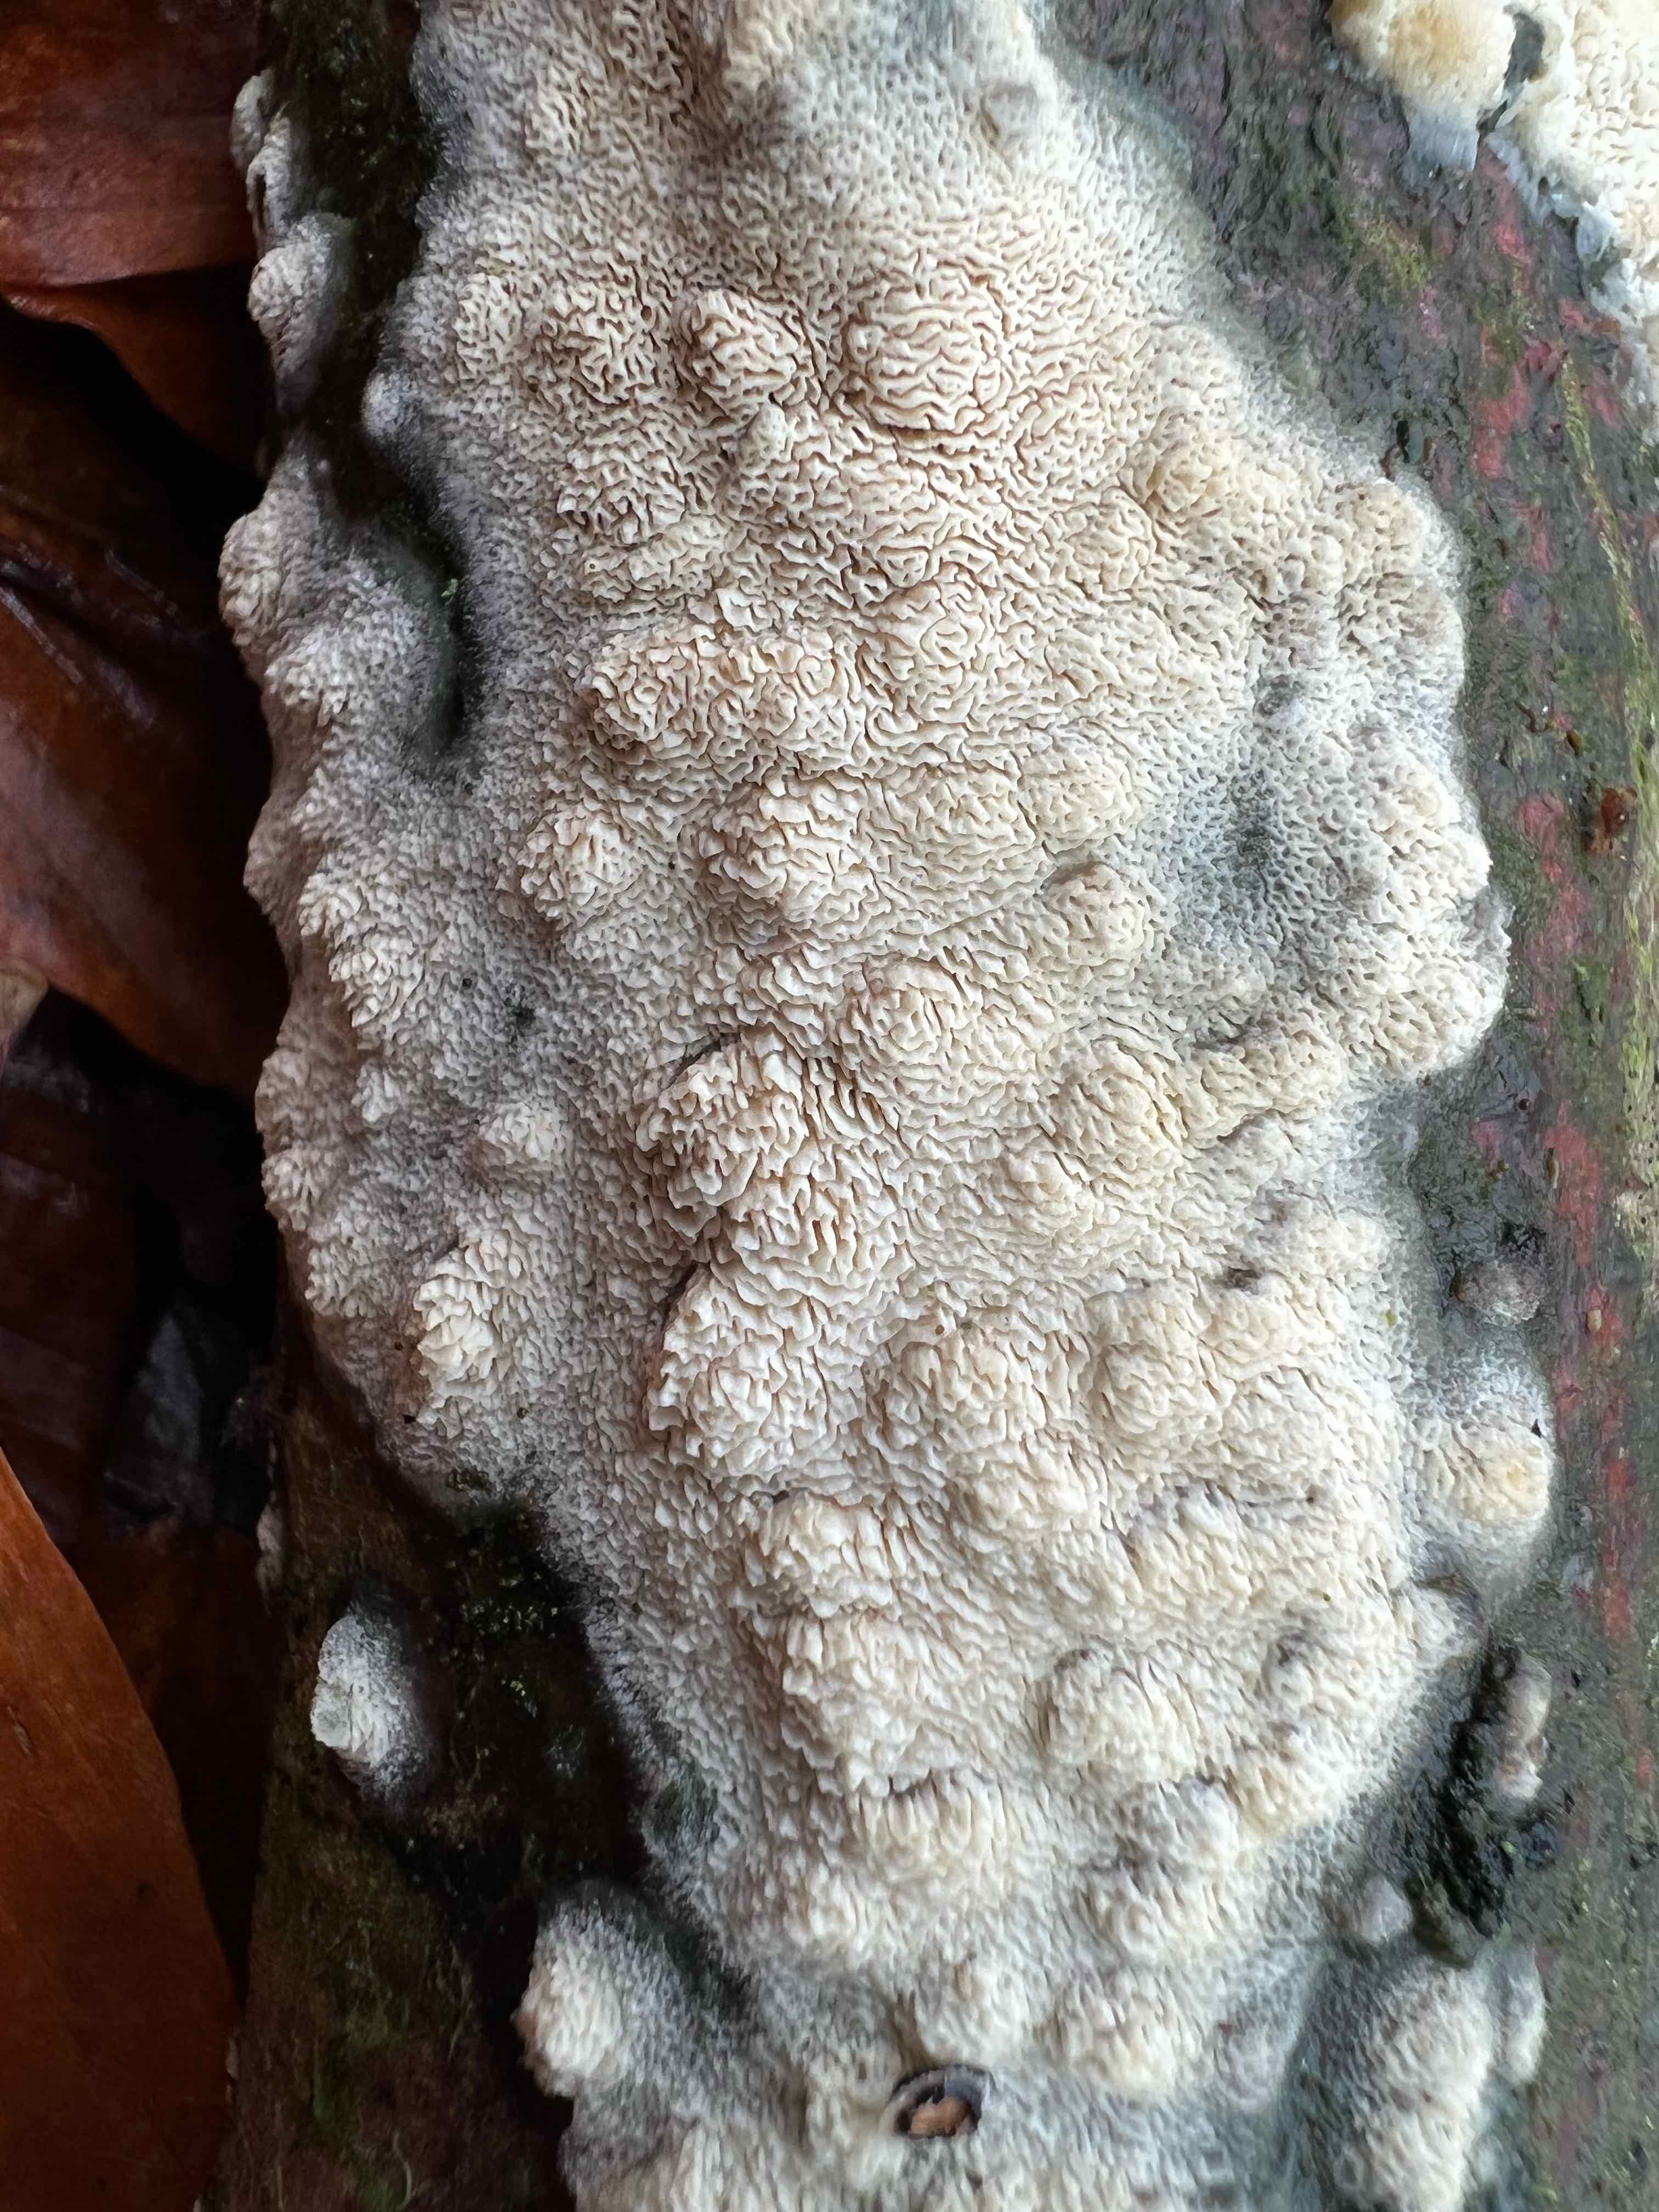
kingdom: Fungi
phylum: Basidiomycota
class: Agaricomycetes
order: Hymenochaetales
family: Schizoporaceae
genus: Xylodon
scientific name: Xylodon subtropicus
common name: labyrint-tandsvamp
